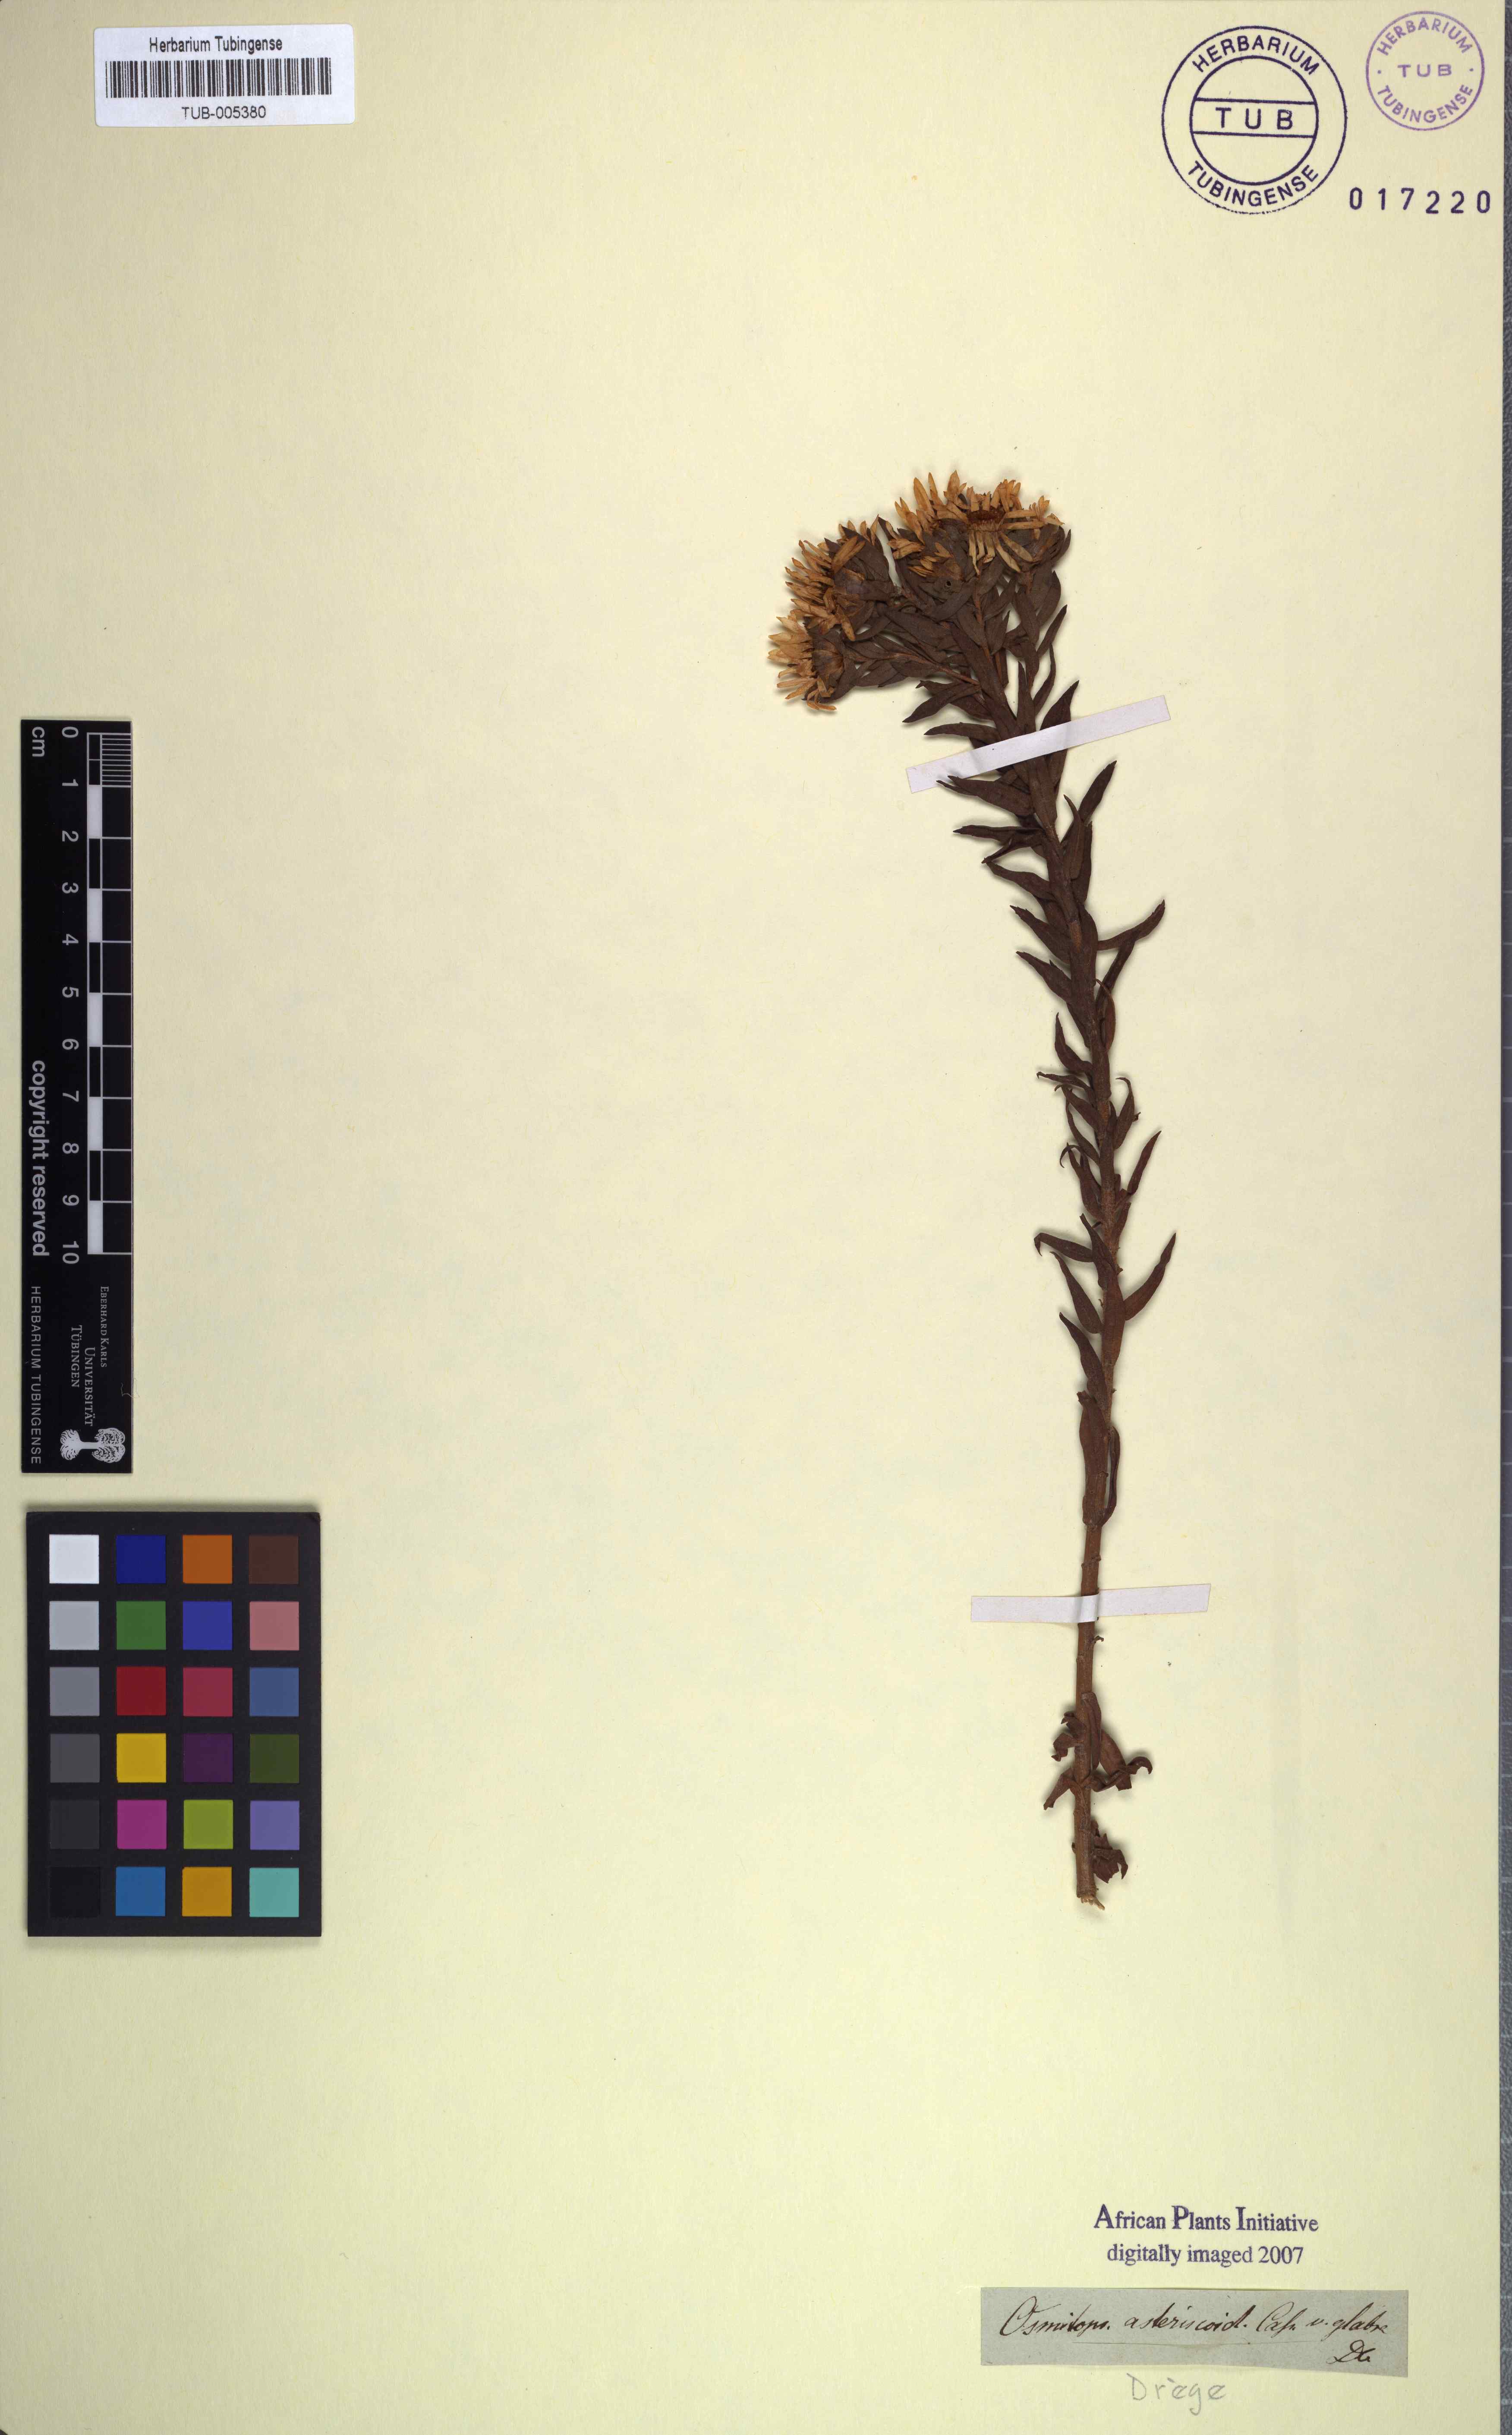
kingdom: Plantae
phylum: Tracheophyta
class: Magnoliopsida
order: Asterales
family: Asteraceae
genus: Osmitopsis
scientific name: Osmitopsis asteriscoides
